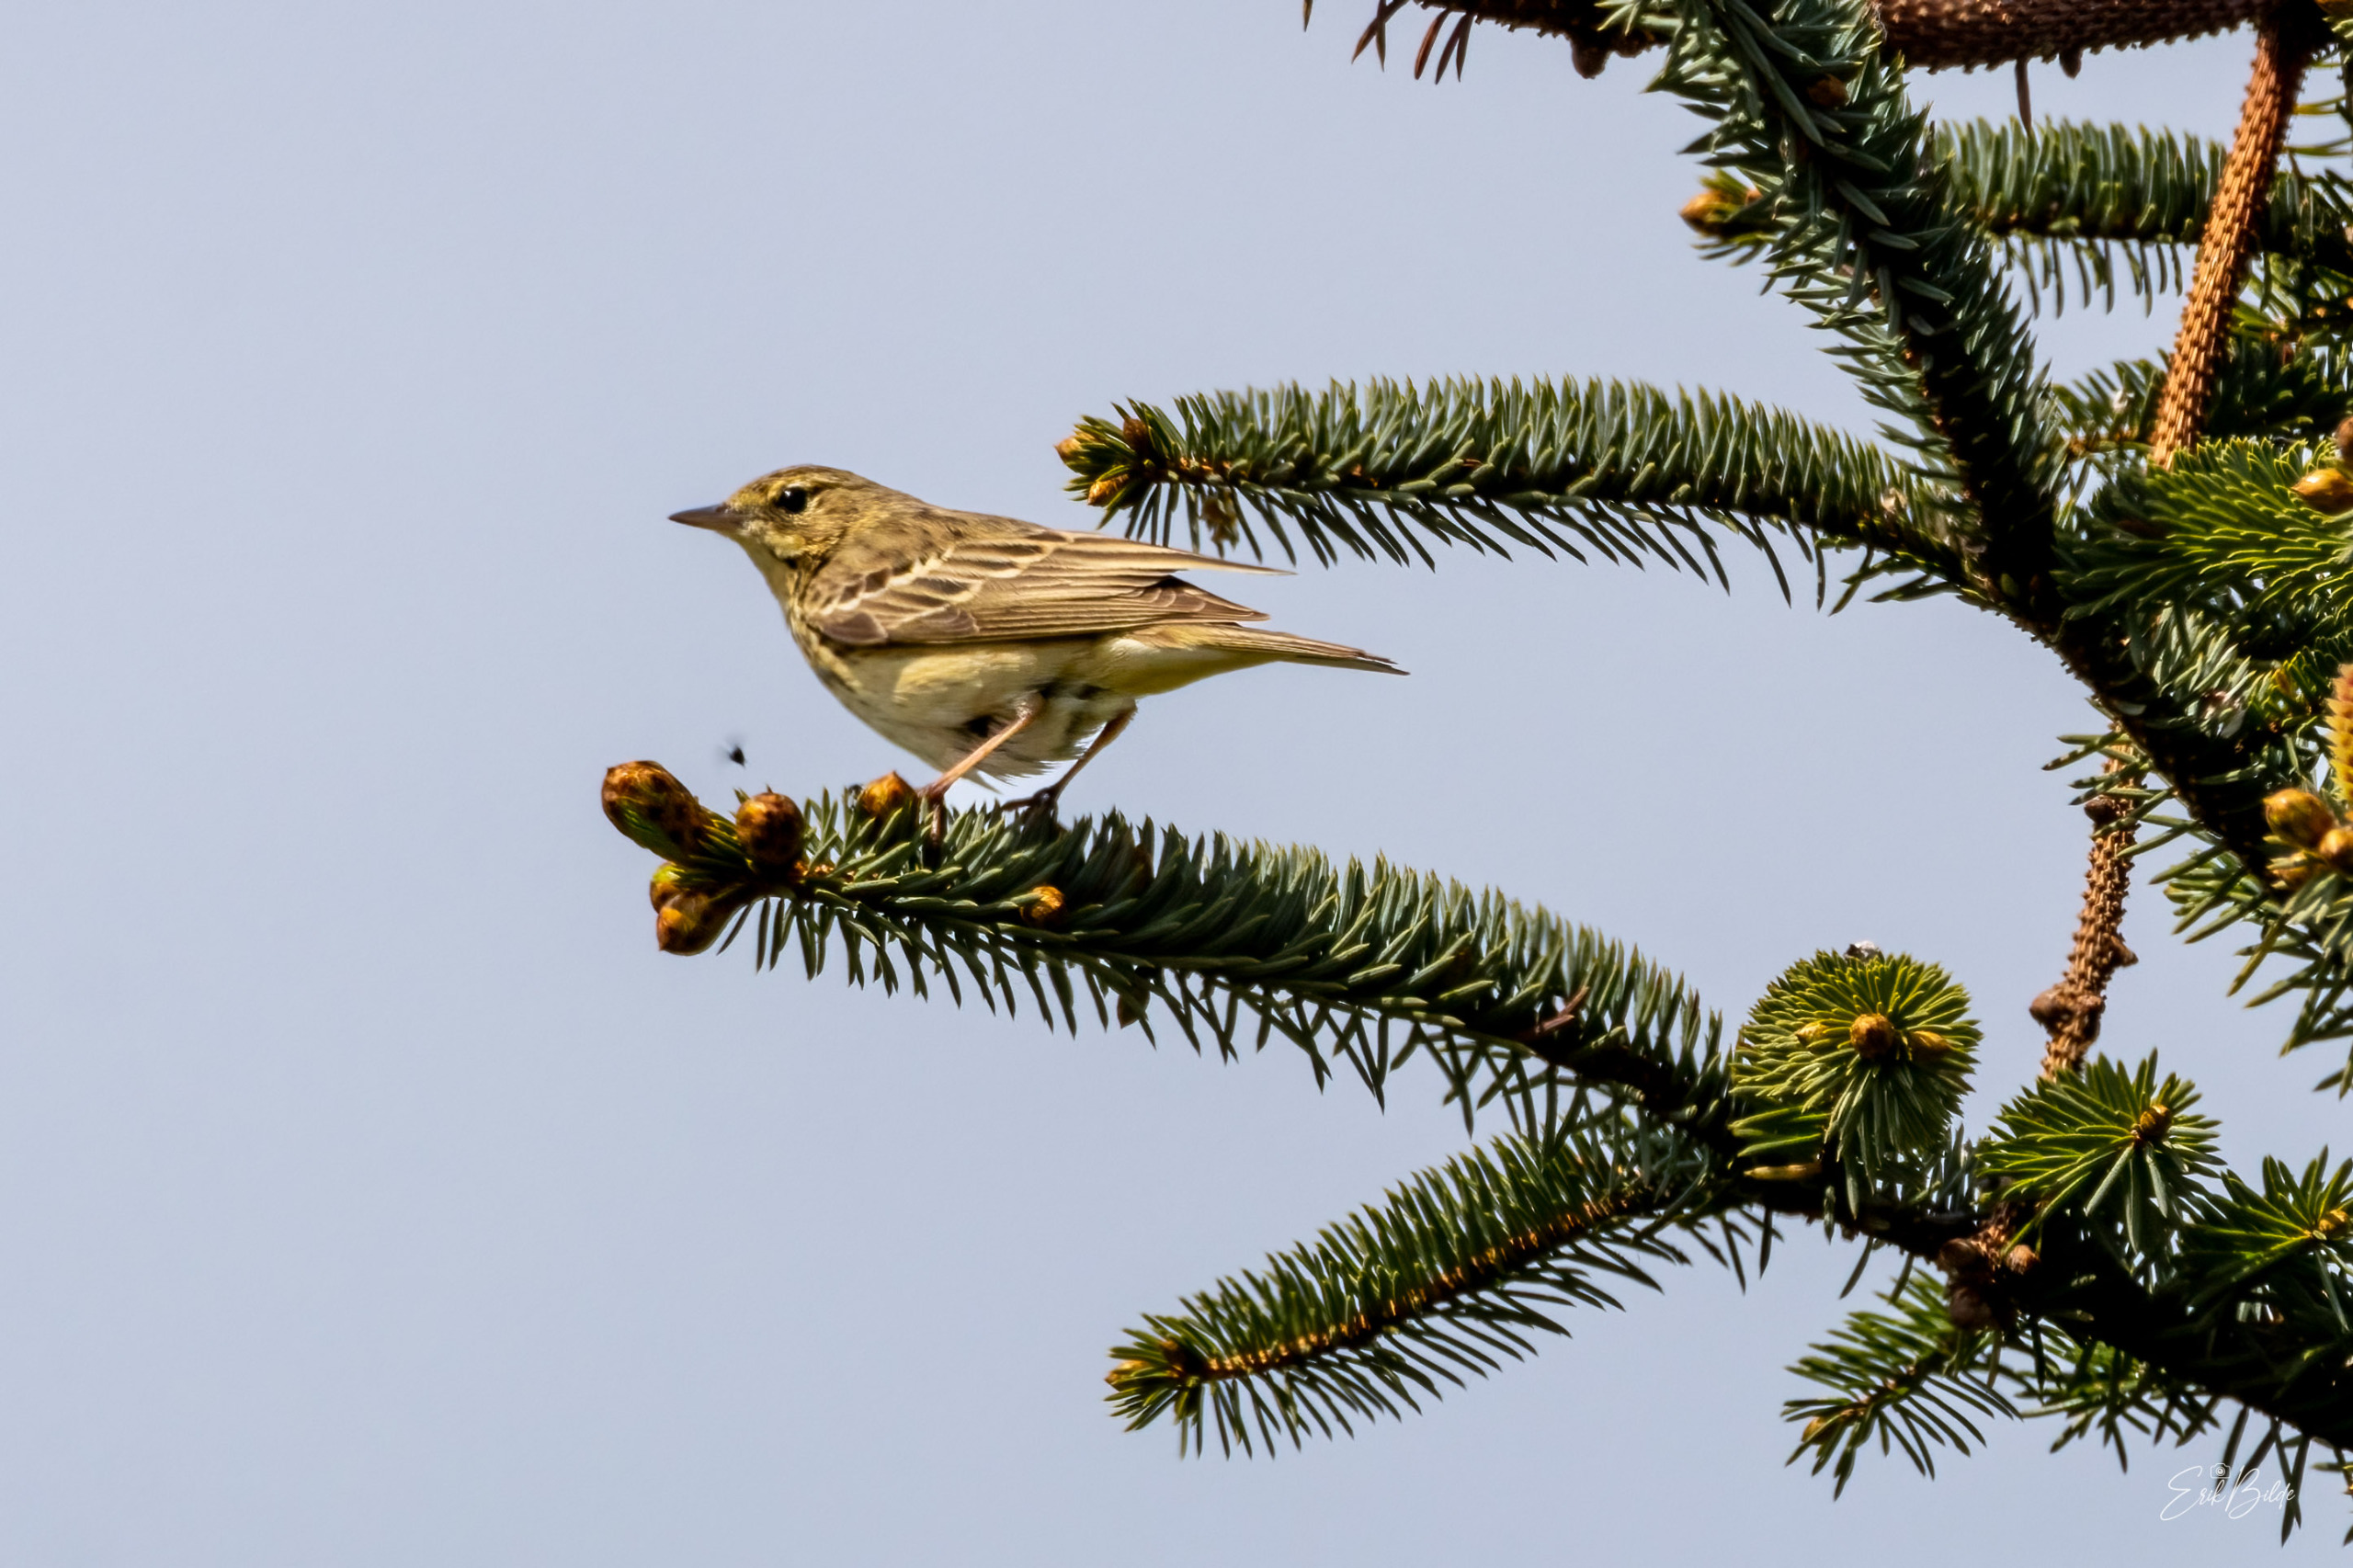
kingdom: Animalia
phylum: Chordata
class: Aves
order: Passeriformes
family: Motacillidae
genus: Anthus
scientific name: Anthus trivialis
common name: Skovpiber
